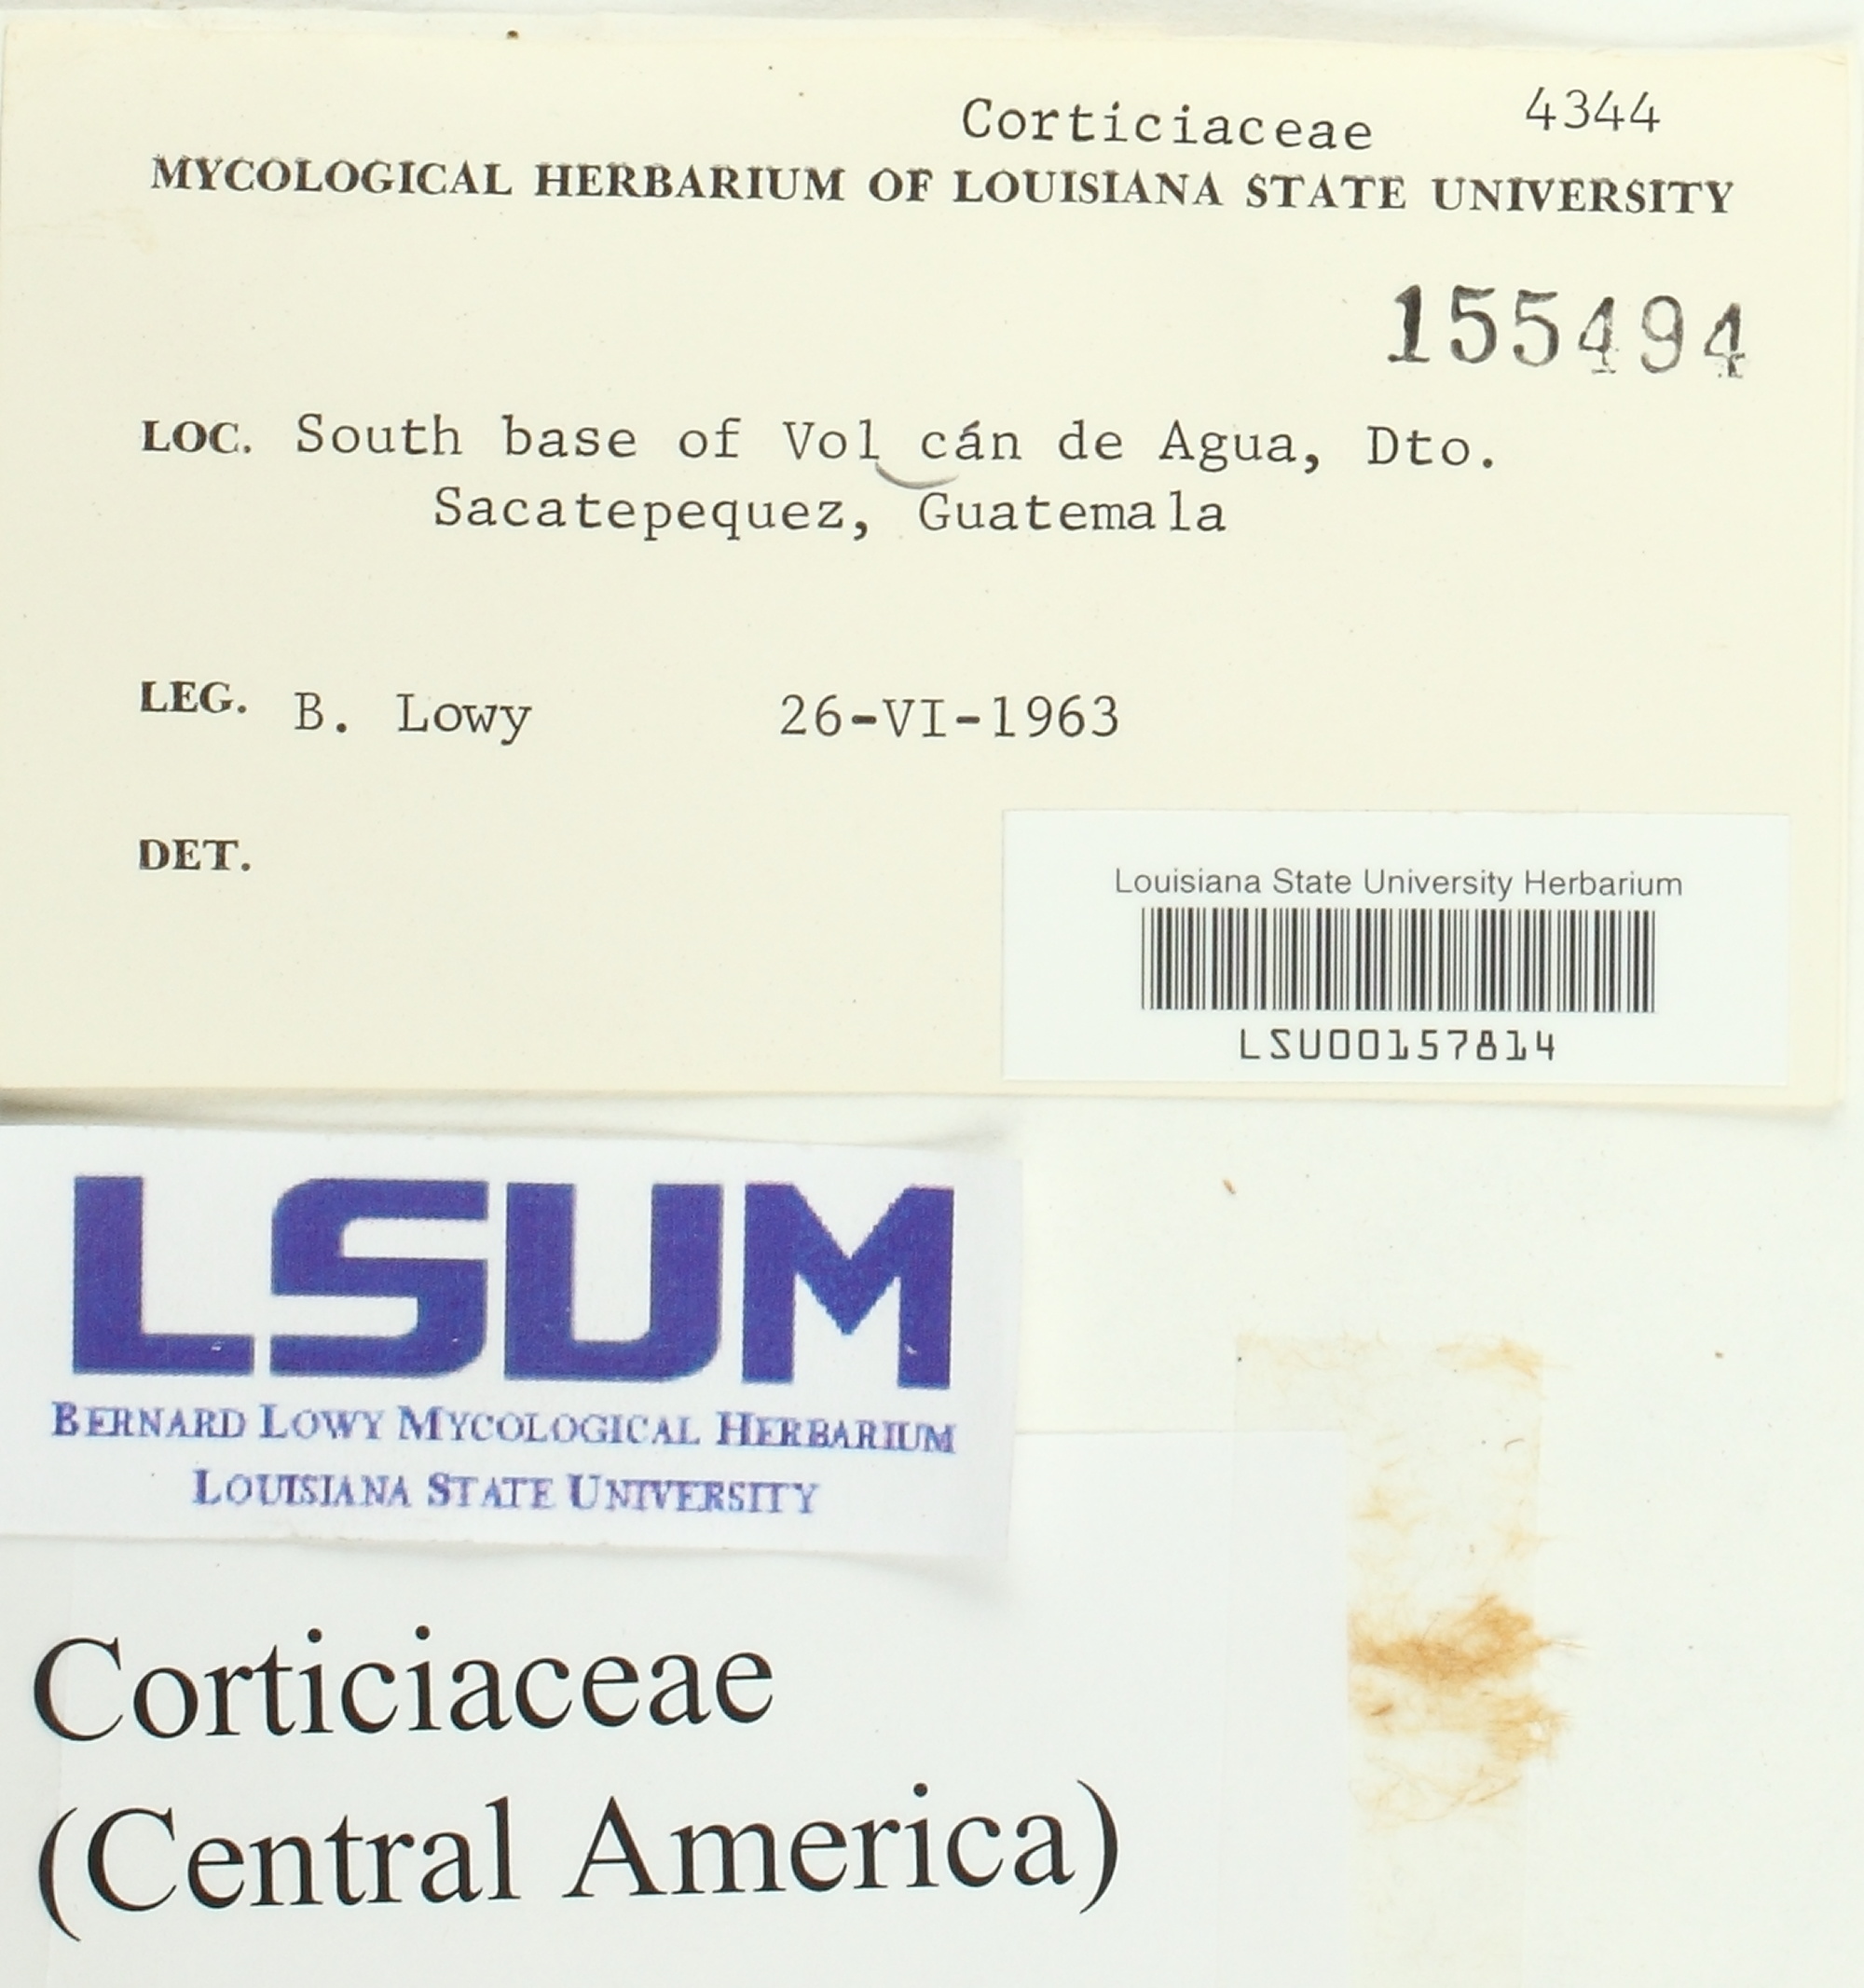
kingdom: Fungi
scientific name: Fungi
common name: Fungi
